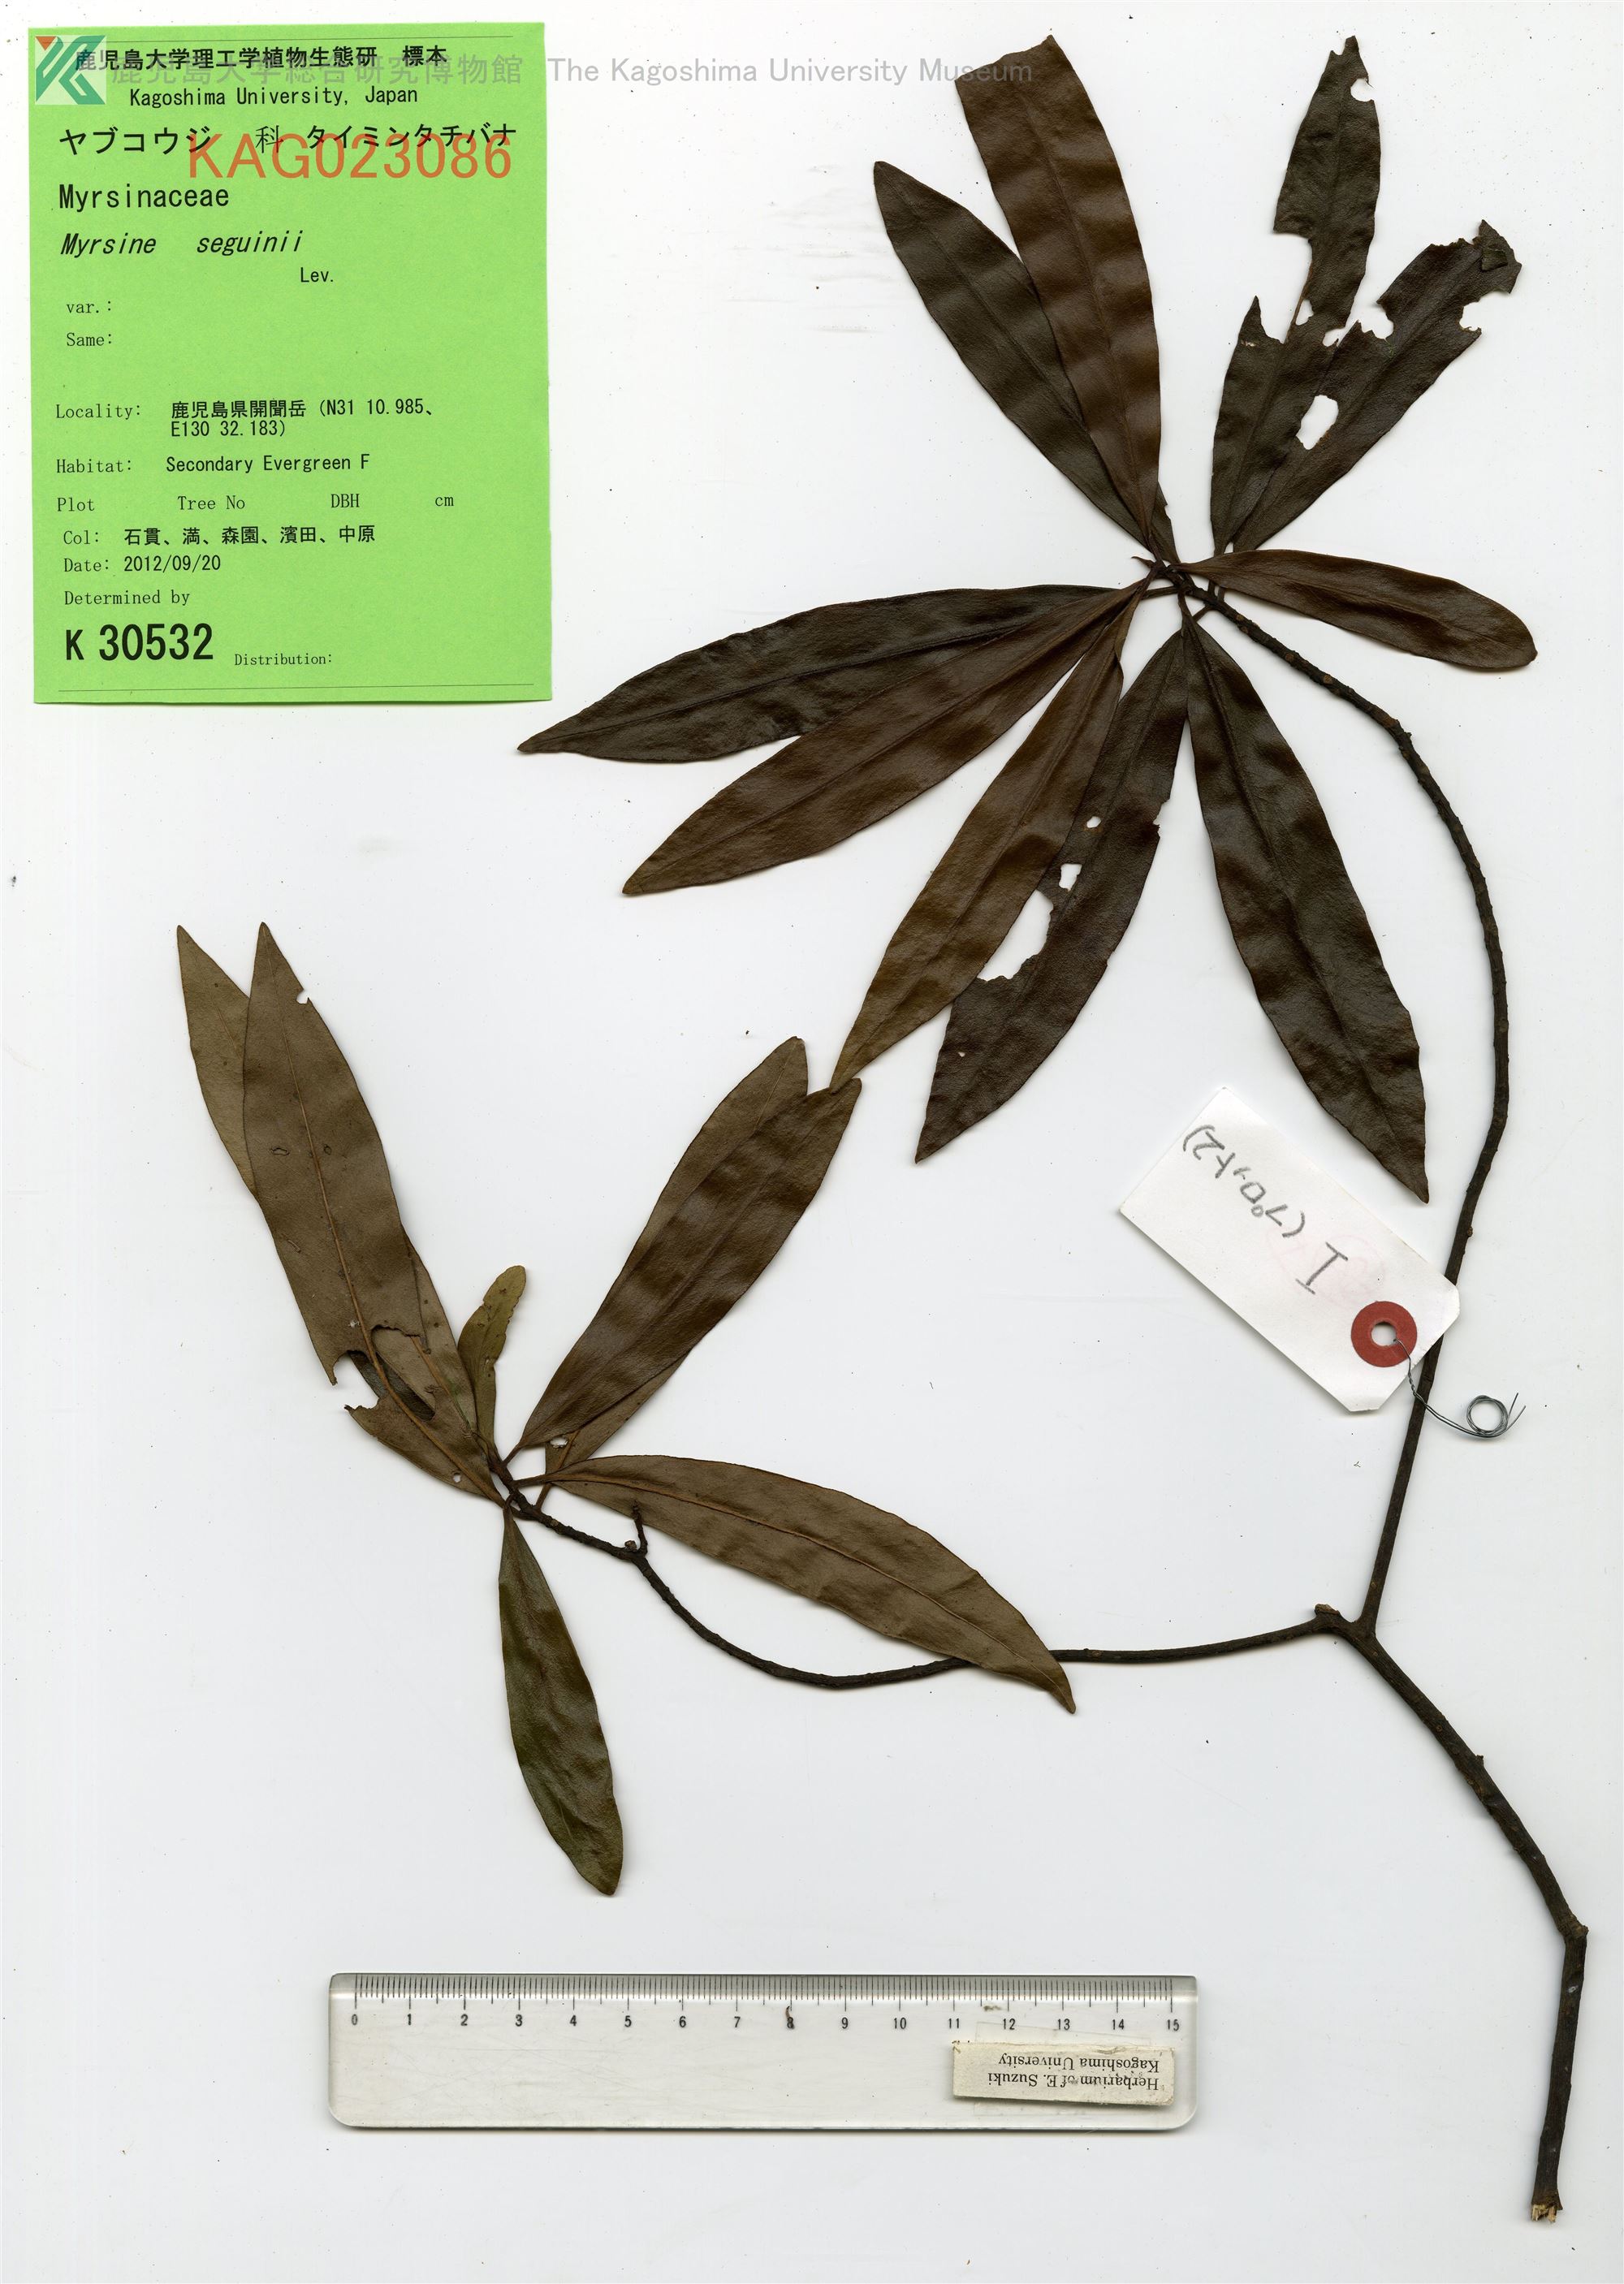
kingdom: Plantae
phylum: Tracheophyta
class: Magnoliopsida
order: Ericales
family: Primulaceae
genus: Myrsine
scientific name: Myrsine seguinii
